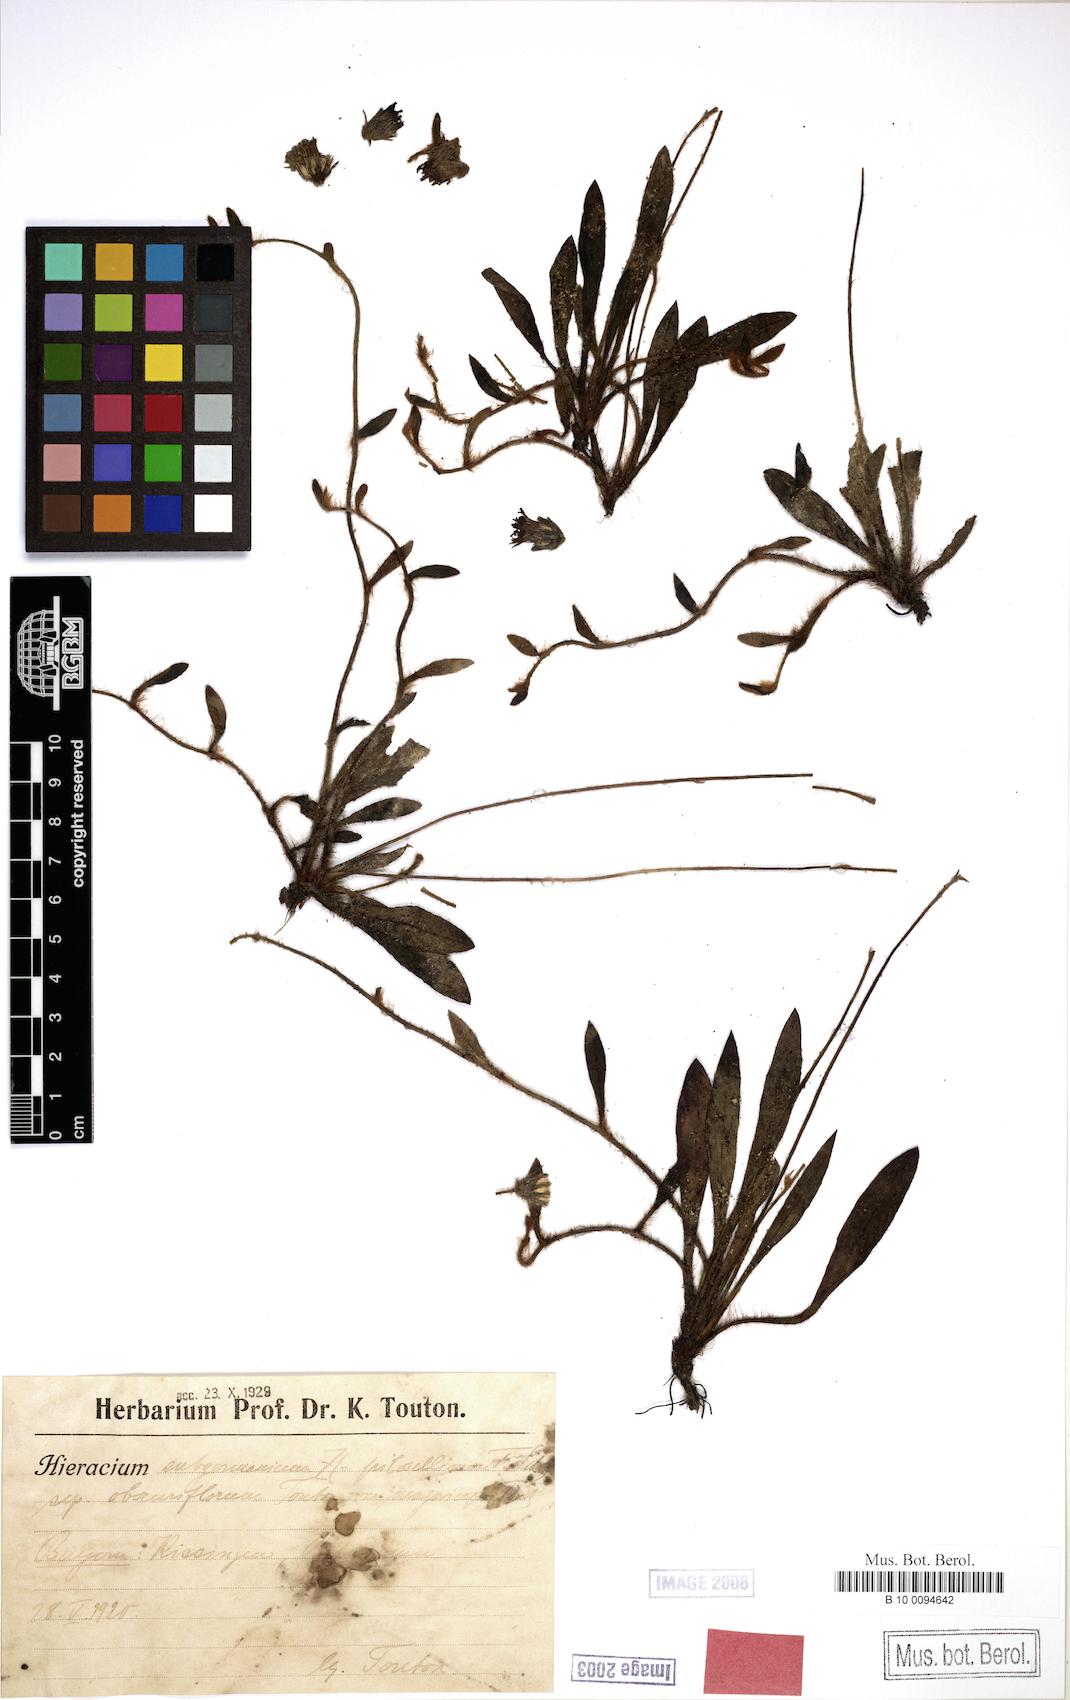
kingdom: Plantae
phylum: Tracheophyta
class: Magnoliopsida
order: Asterales
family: Asteraceae
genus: Hieracium
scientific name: Hieracium subgermanicum
